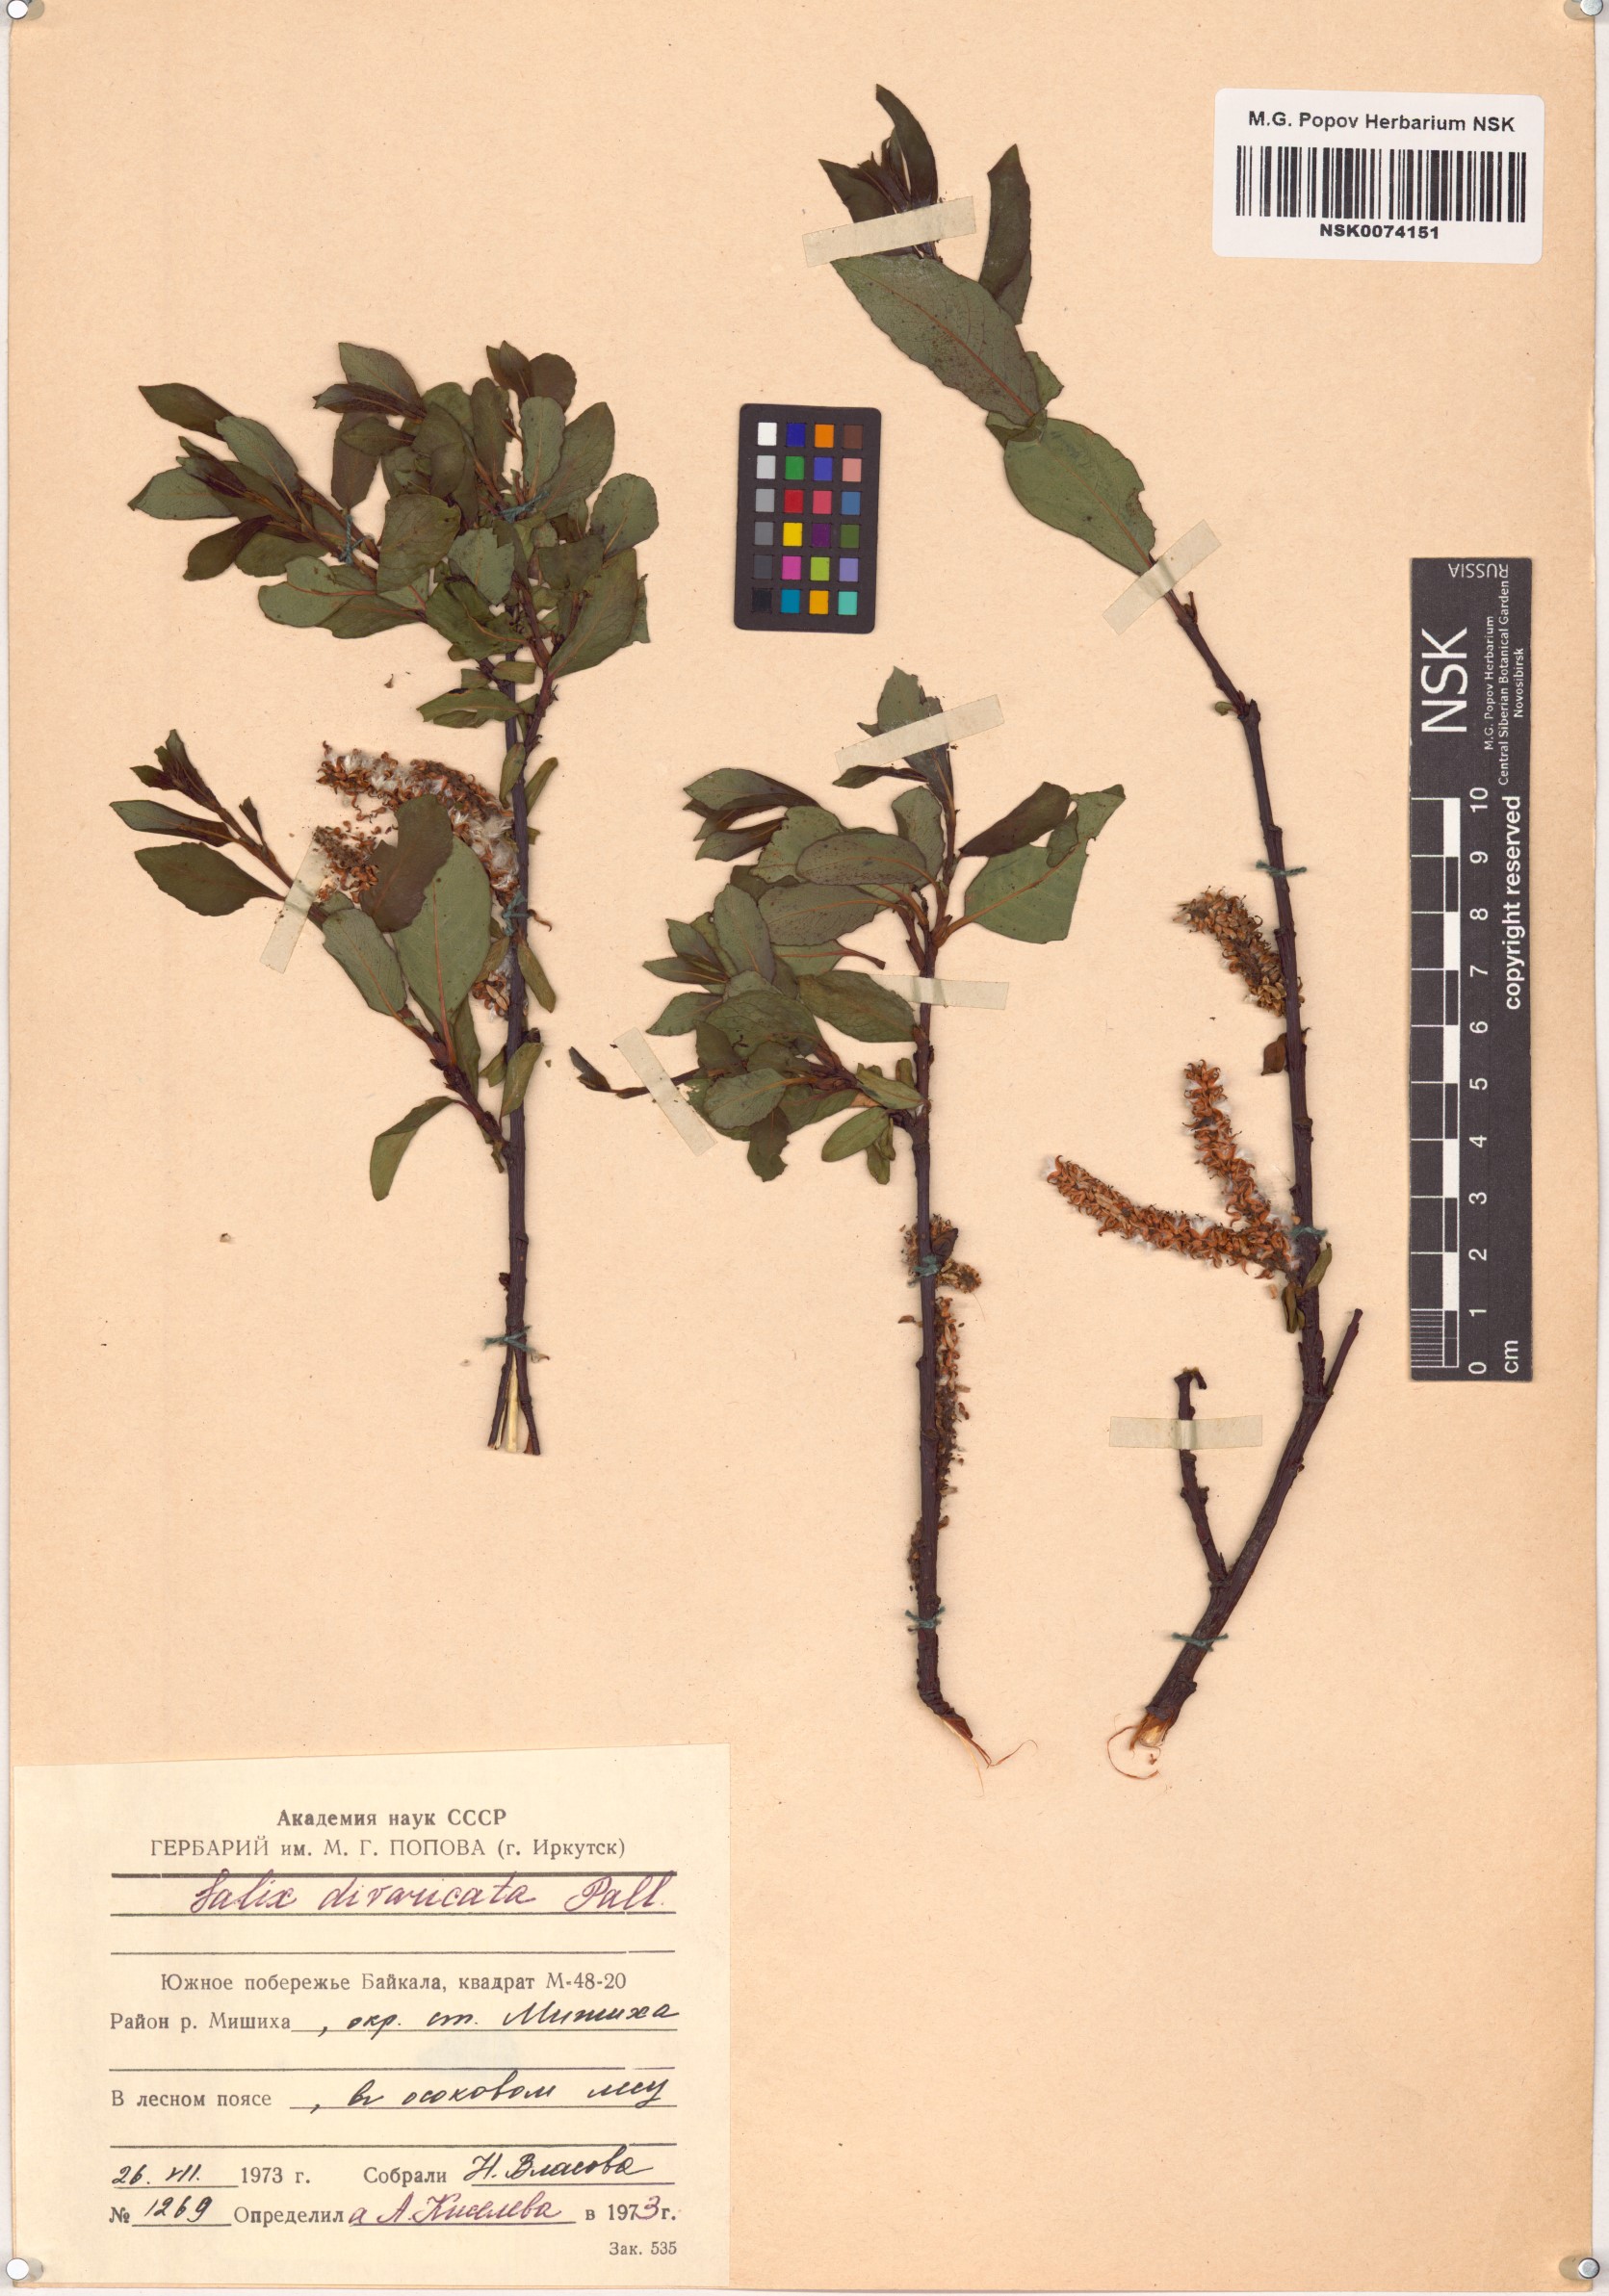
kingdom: Plantae
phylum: Tracheophyta
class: Magnoliopsida
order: Malpighiales
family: Salicaceae
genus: Salix
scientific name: Salix divaricata
